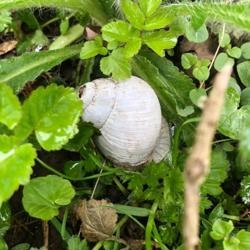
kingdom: Animalia
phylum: Mollusca
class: Gastropoda
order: Stylommatophora
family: Helicidae
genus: Helix
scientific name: Helix pomatia
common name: Vinbjergsnegl
